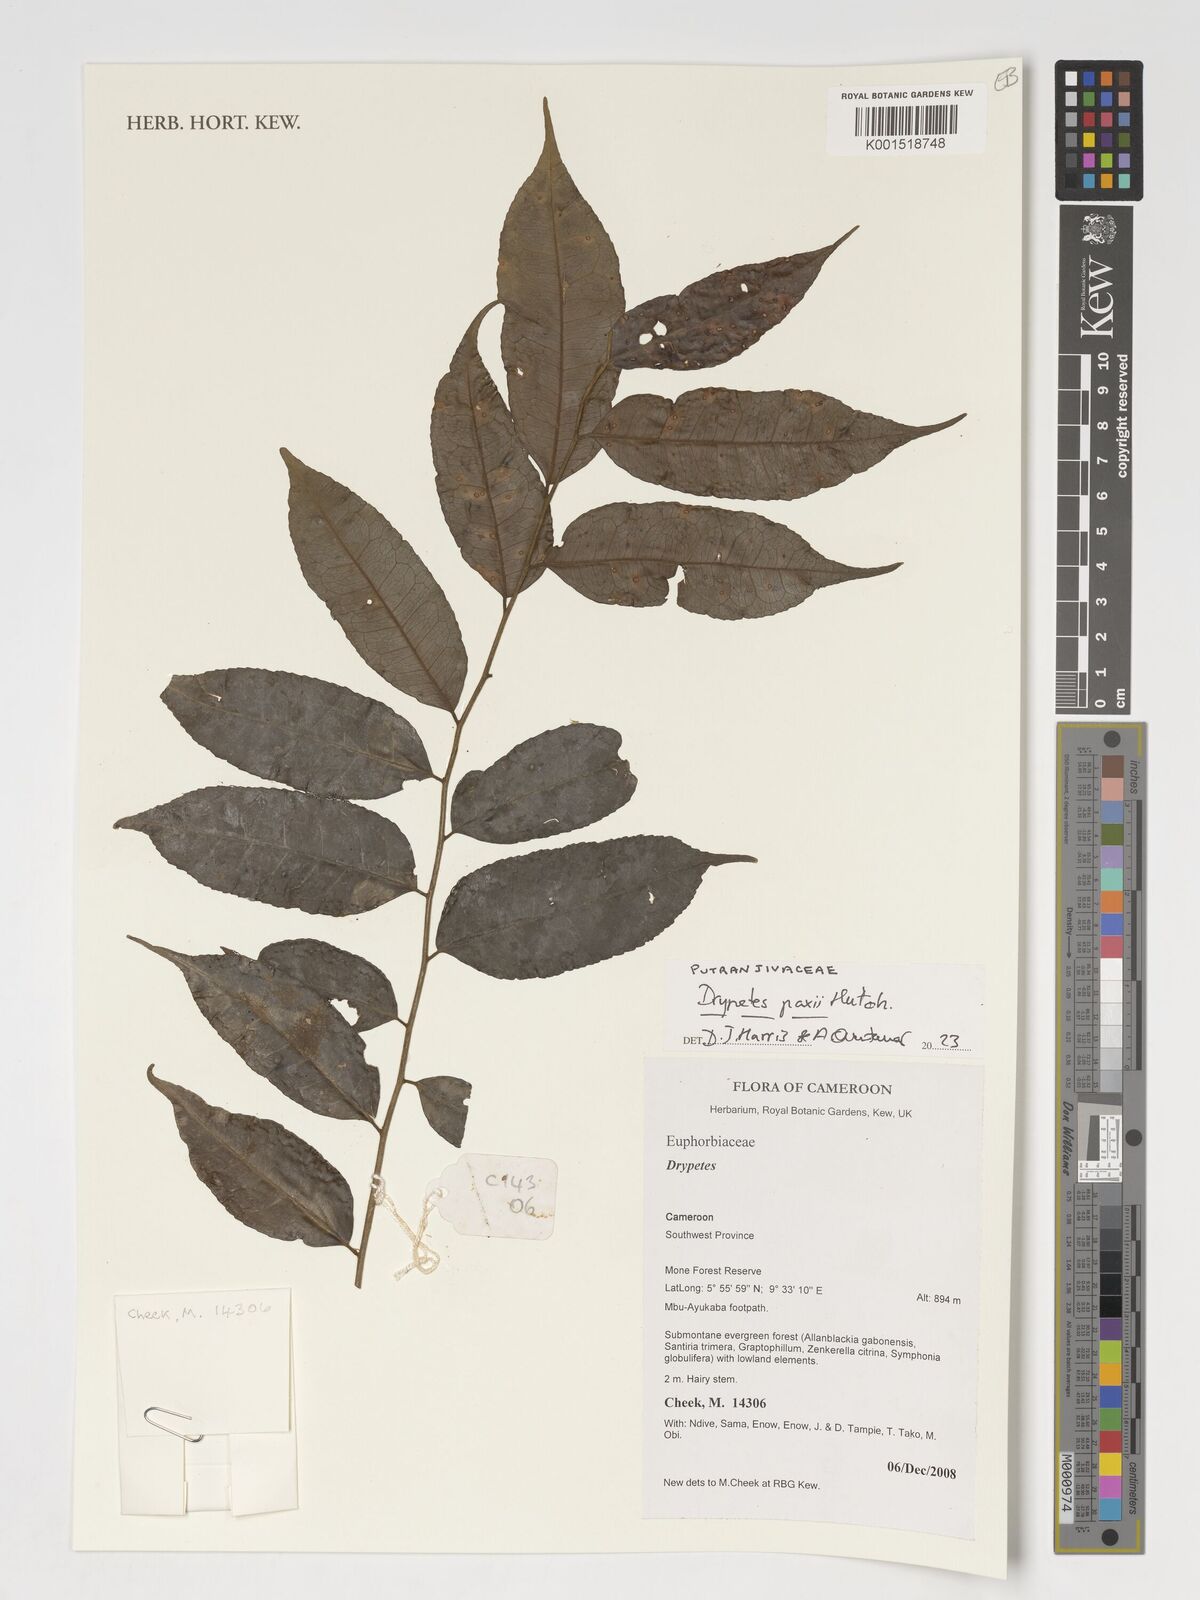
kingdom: Plantae
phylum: Tracheophyta
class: Magnoliopsida
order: Malpighiales
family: Putranjivaceae
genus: Drypetes
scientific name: Drypetes paxii
